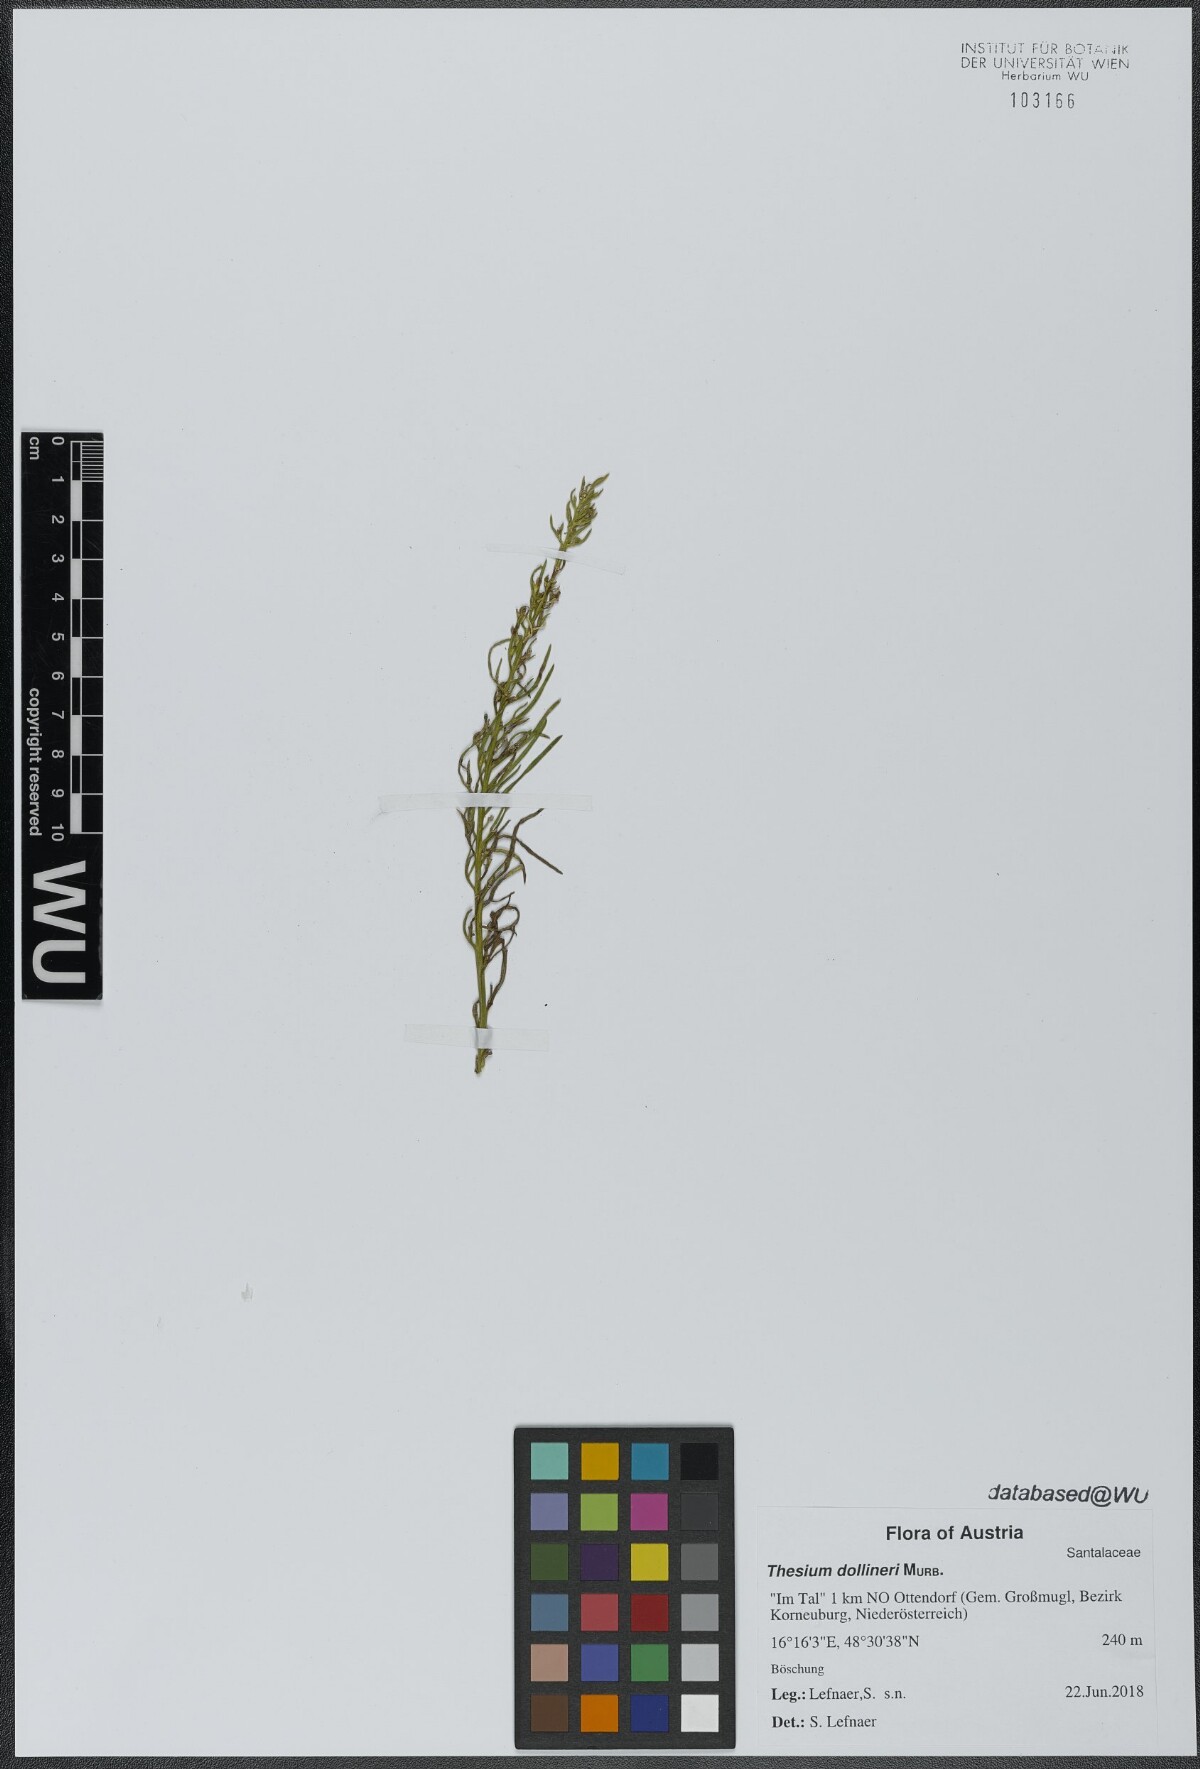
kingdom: Plantae
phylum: Tracheophyta
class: Magnoliopsida
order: Santalales
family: Thesiaceae
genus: Thesium
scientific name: Thesium dollineri
